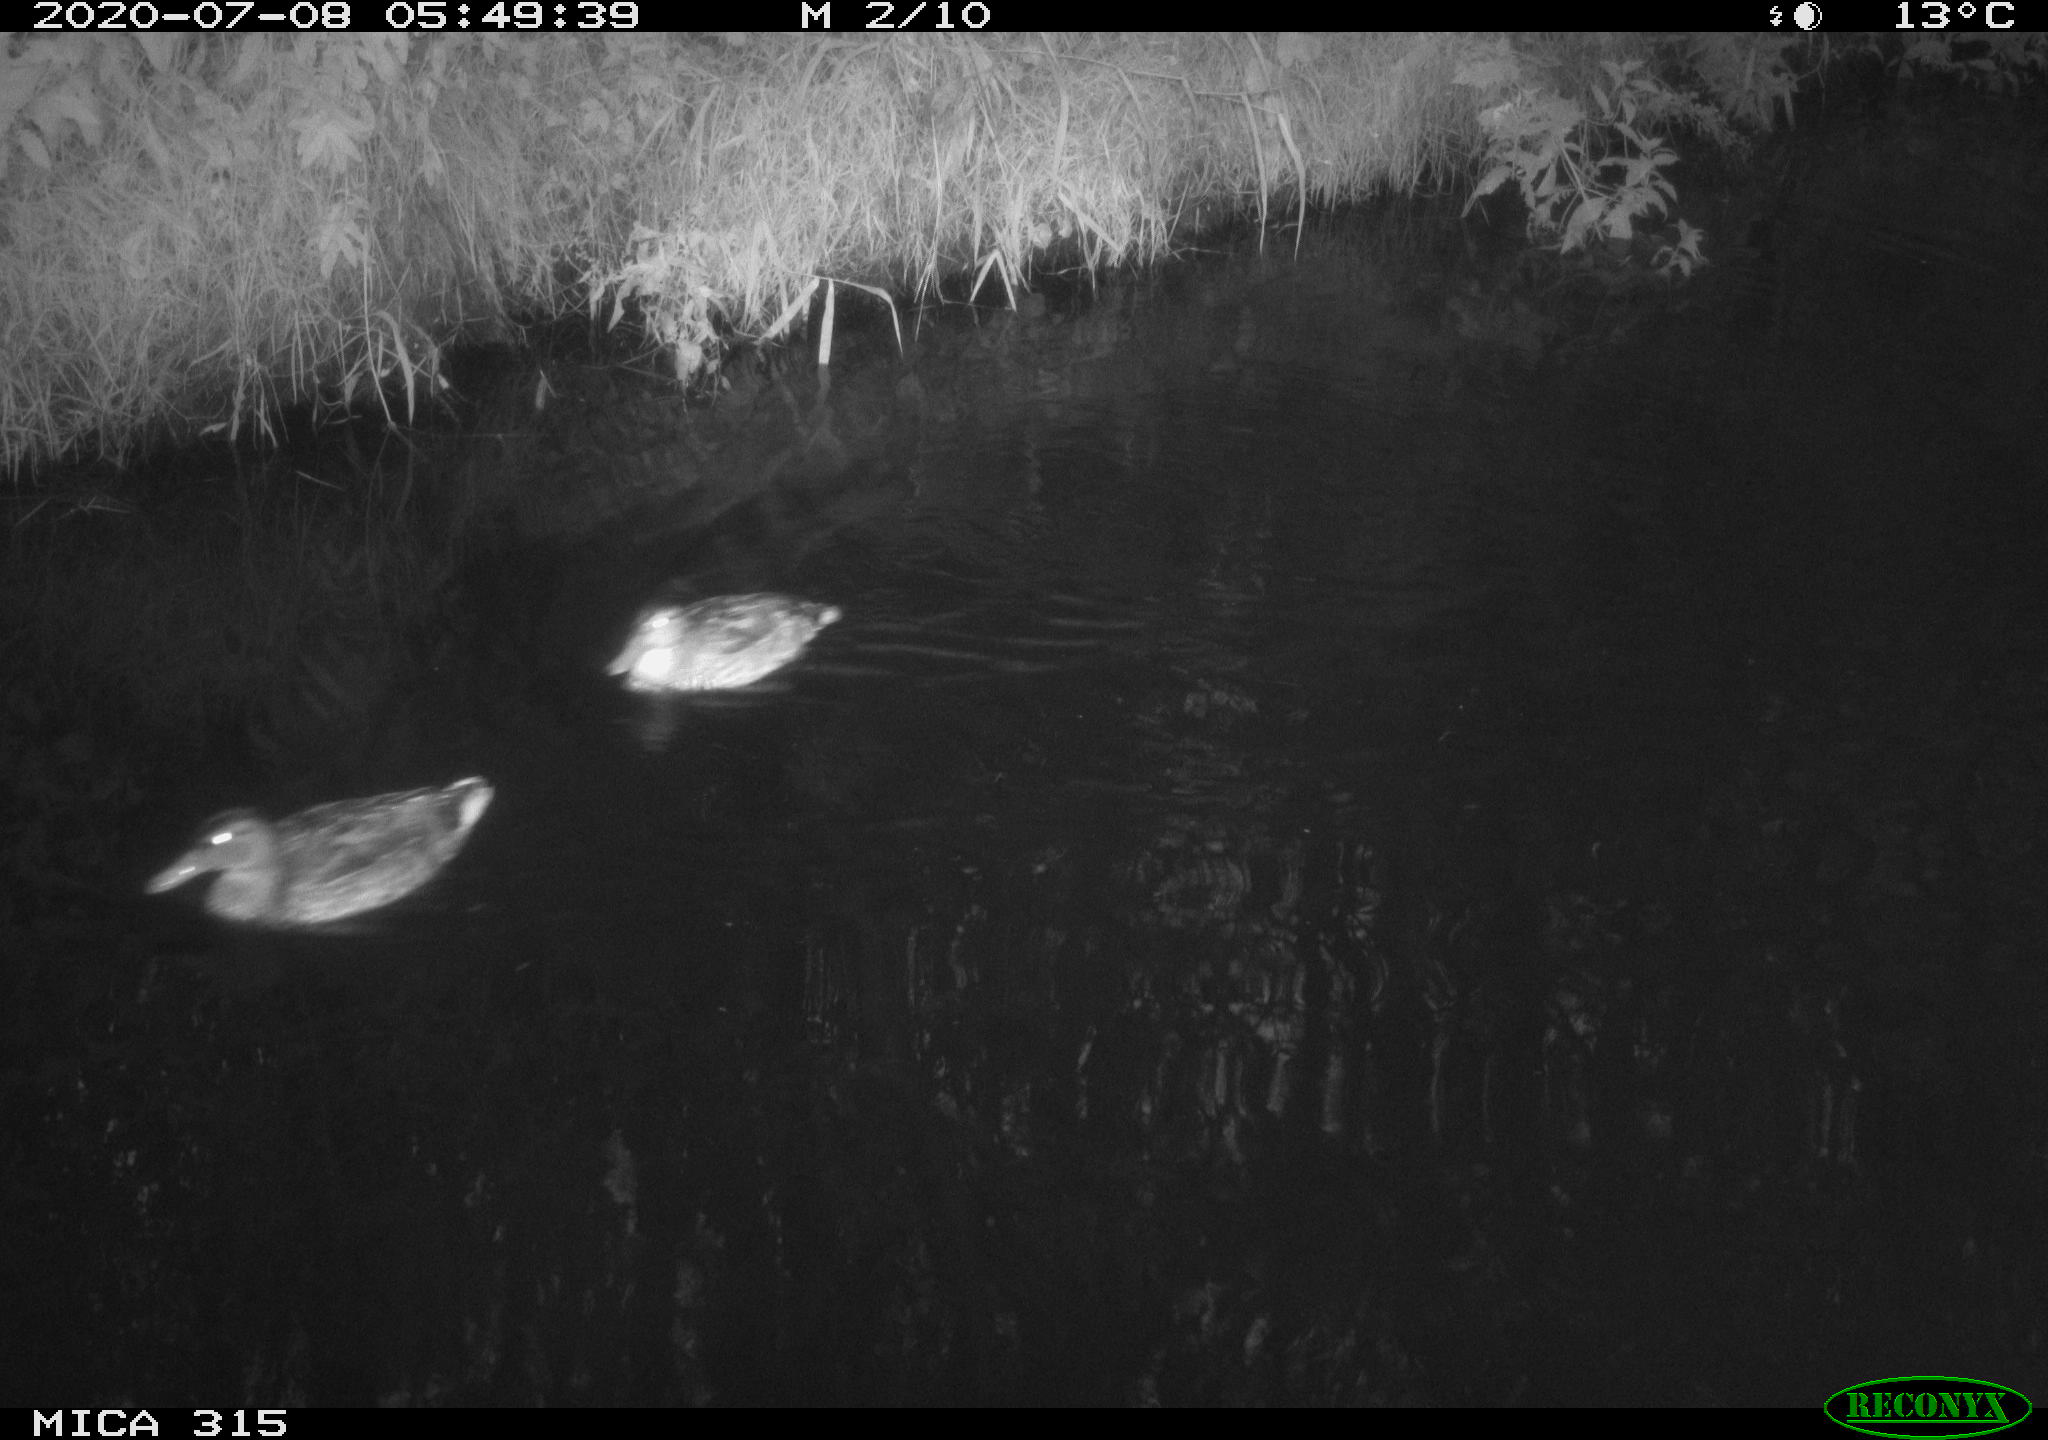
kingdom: Animalia
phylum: Chordata
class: Aves
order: Anseriformes
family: Anatidae
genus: Anas
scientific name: Anas platyrhynchos
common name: Mallard
